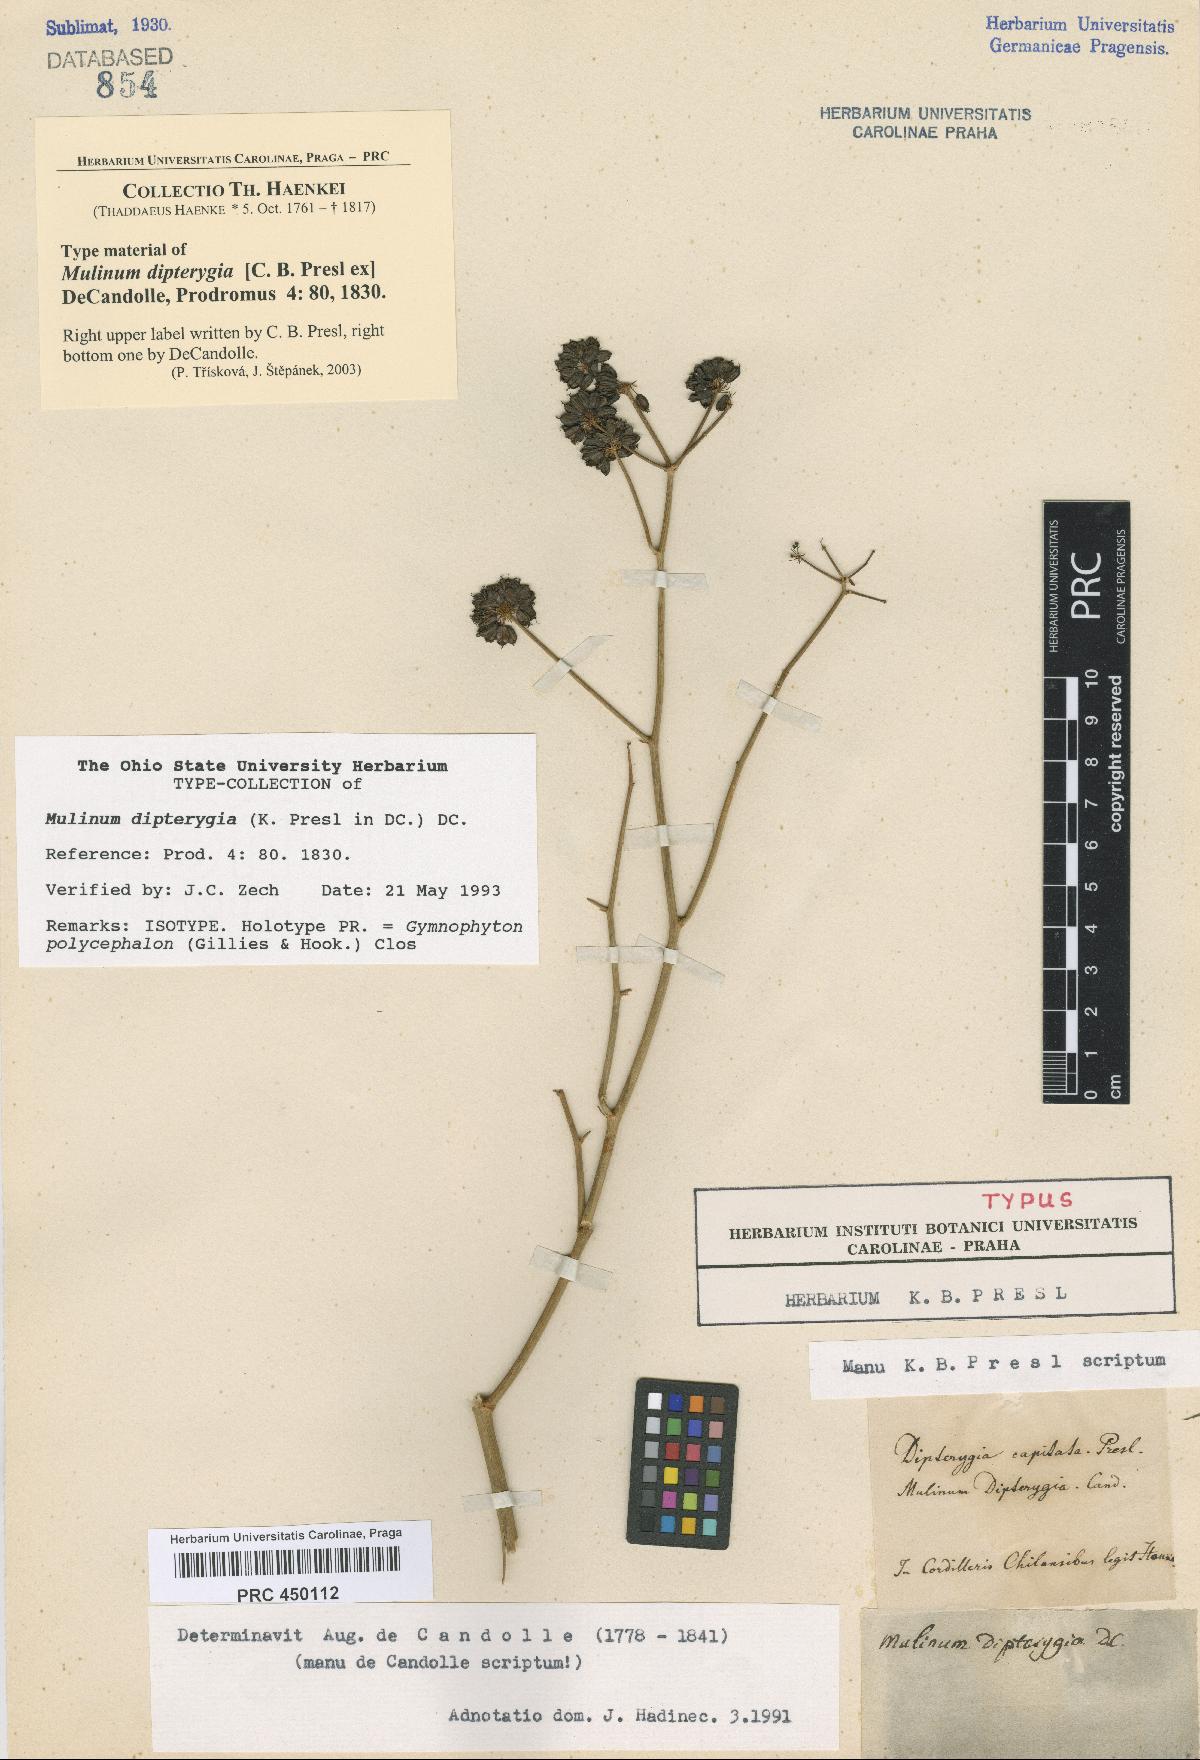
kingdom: Plantae
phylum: Tracheophyta
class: Magnoliopsida
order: Apiales
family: Apiaceae
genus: Gymnophyton
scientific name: Gymnophyton polycephalum
